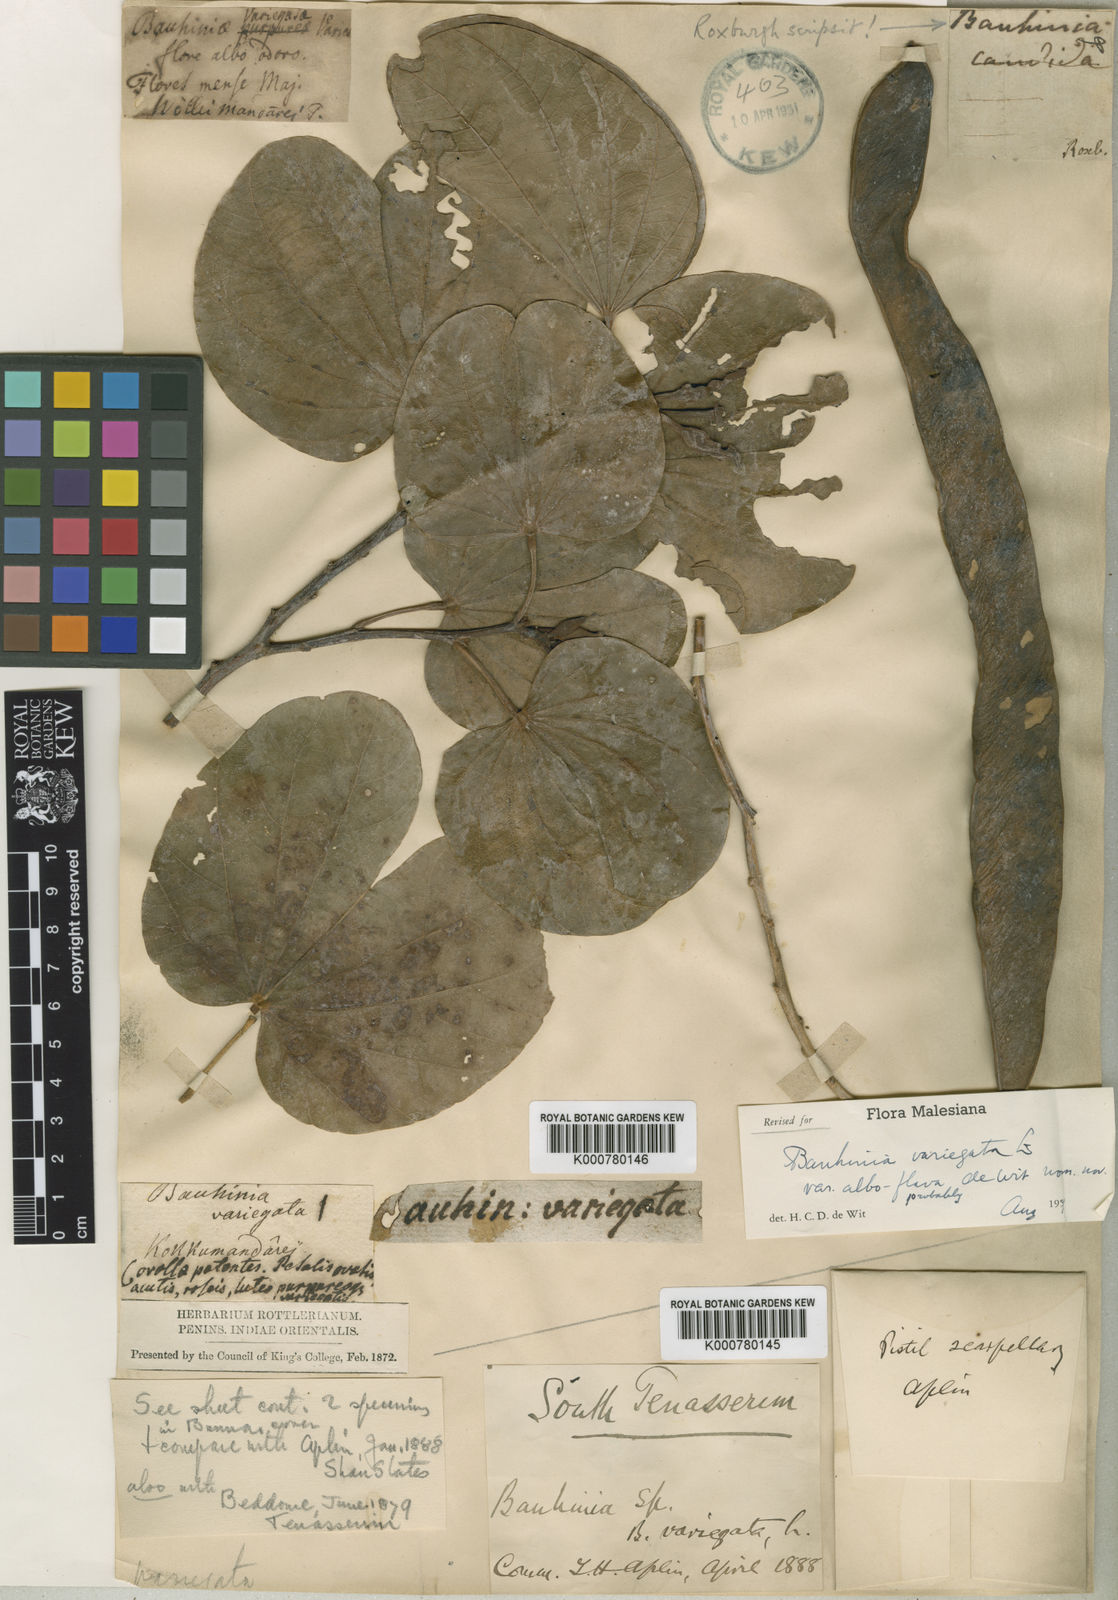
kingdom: Plantae
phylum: Tracheophyta
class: Magnoliopsida
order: Fabales
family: Fabaceae
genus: Bauhinia
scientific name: Bauhinia variegata
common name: Mountain ebony
